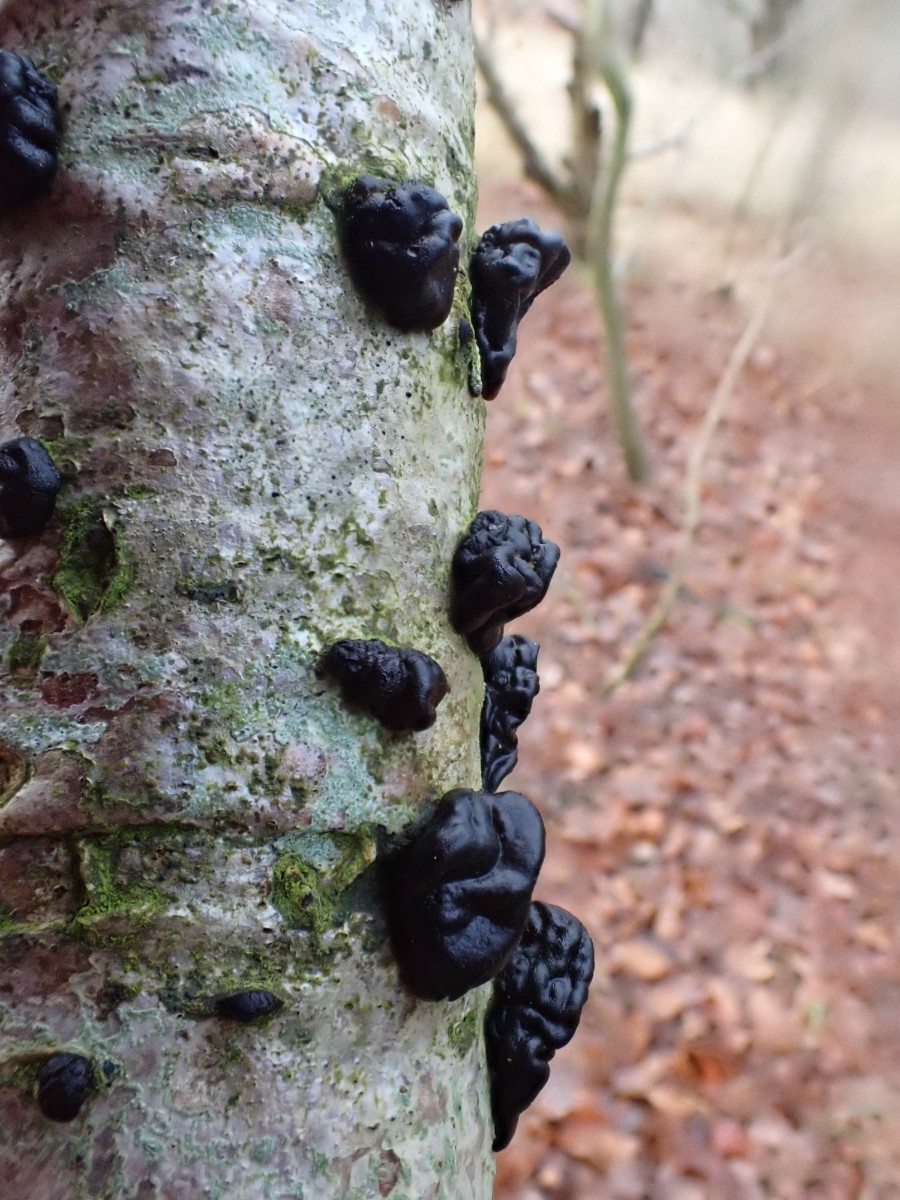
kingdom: Fungi
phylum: Basidiomycota
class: Agaricomycetes
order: Auriculariales
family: Auriculariaceae
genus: Exidia
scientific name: Exidia nigricans
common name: almindelig bævretop
